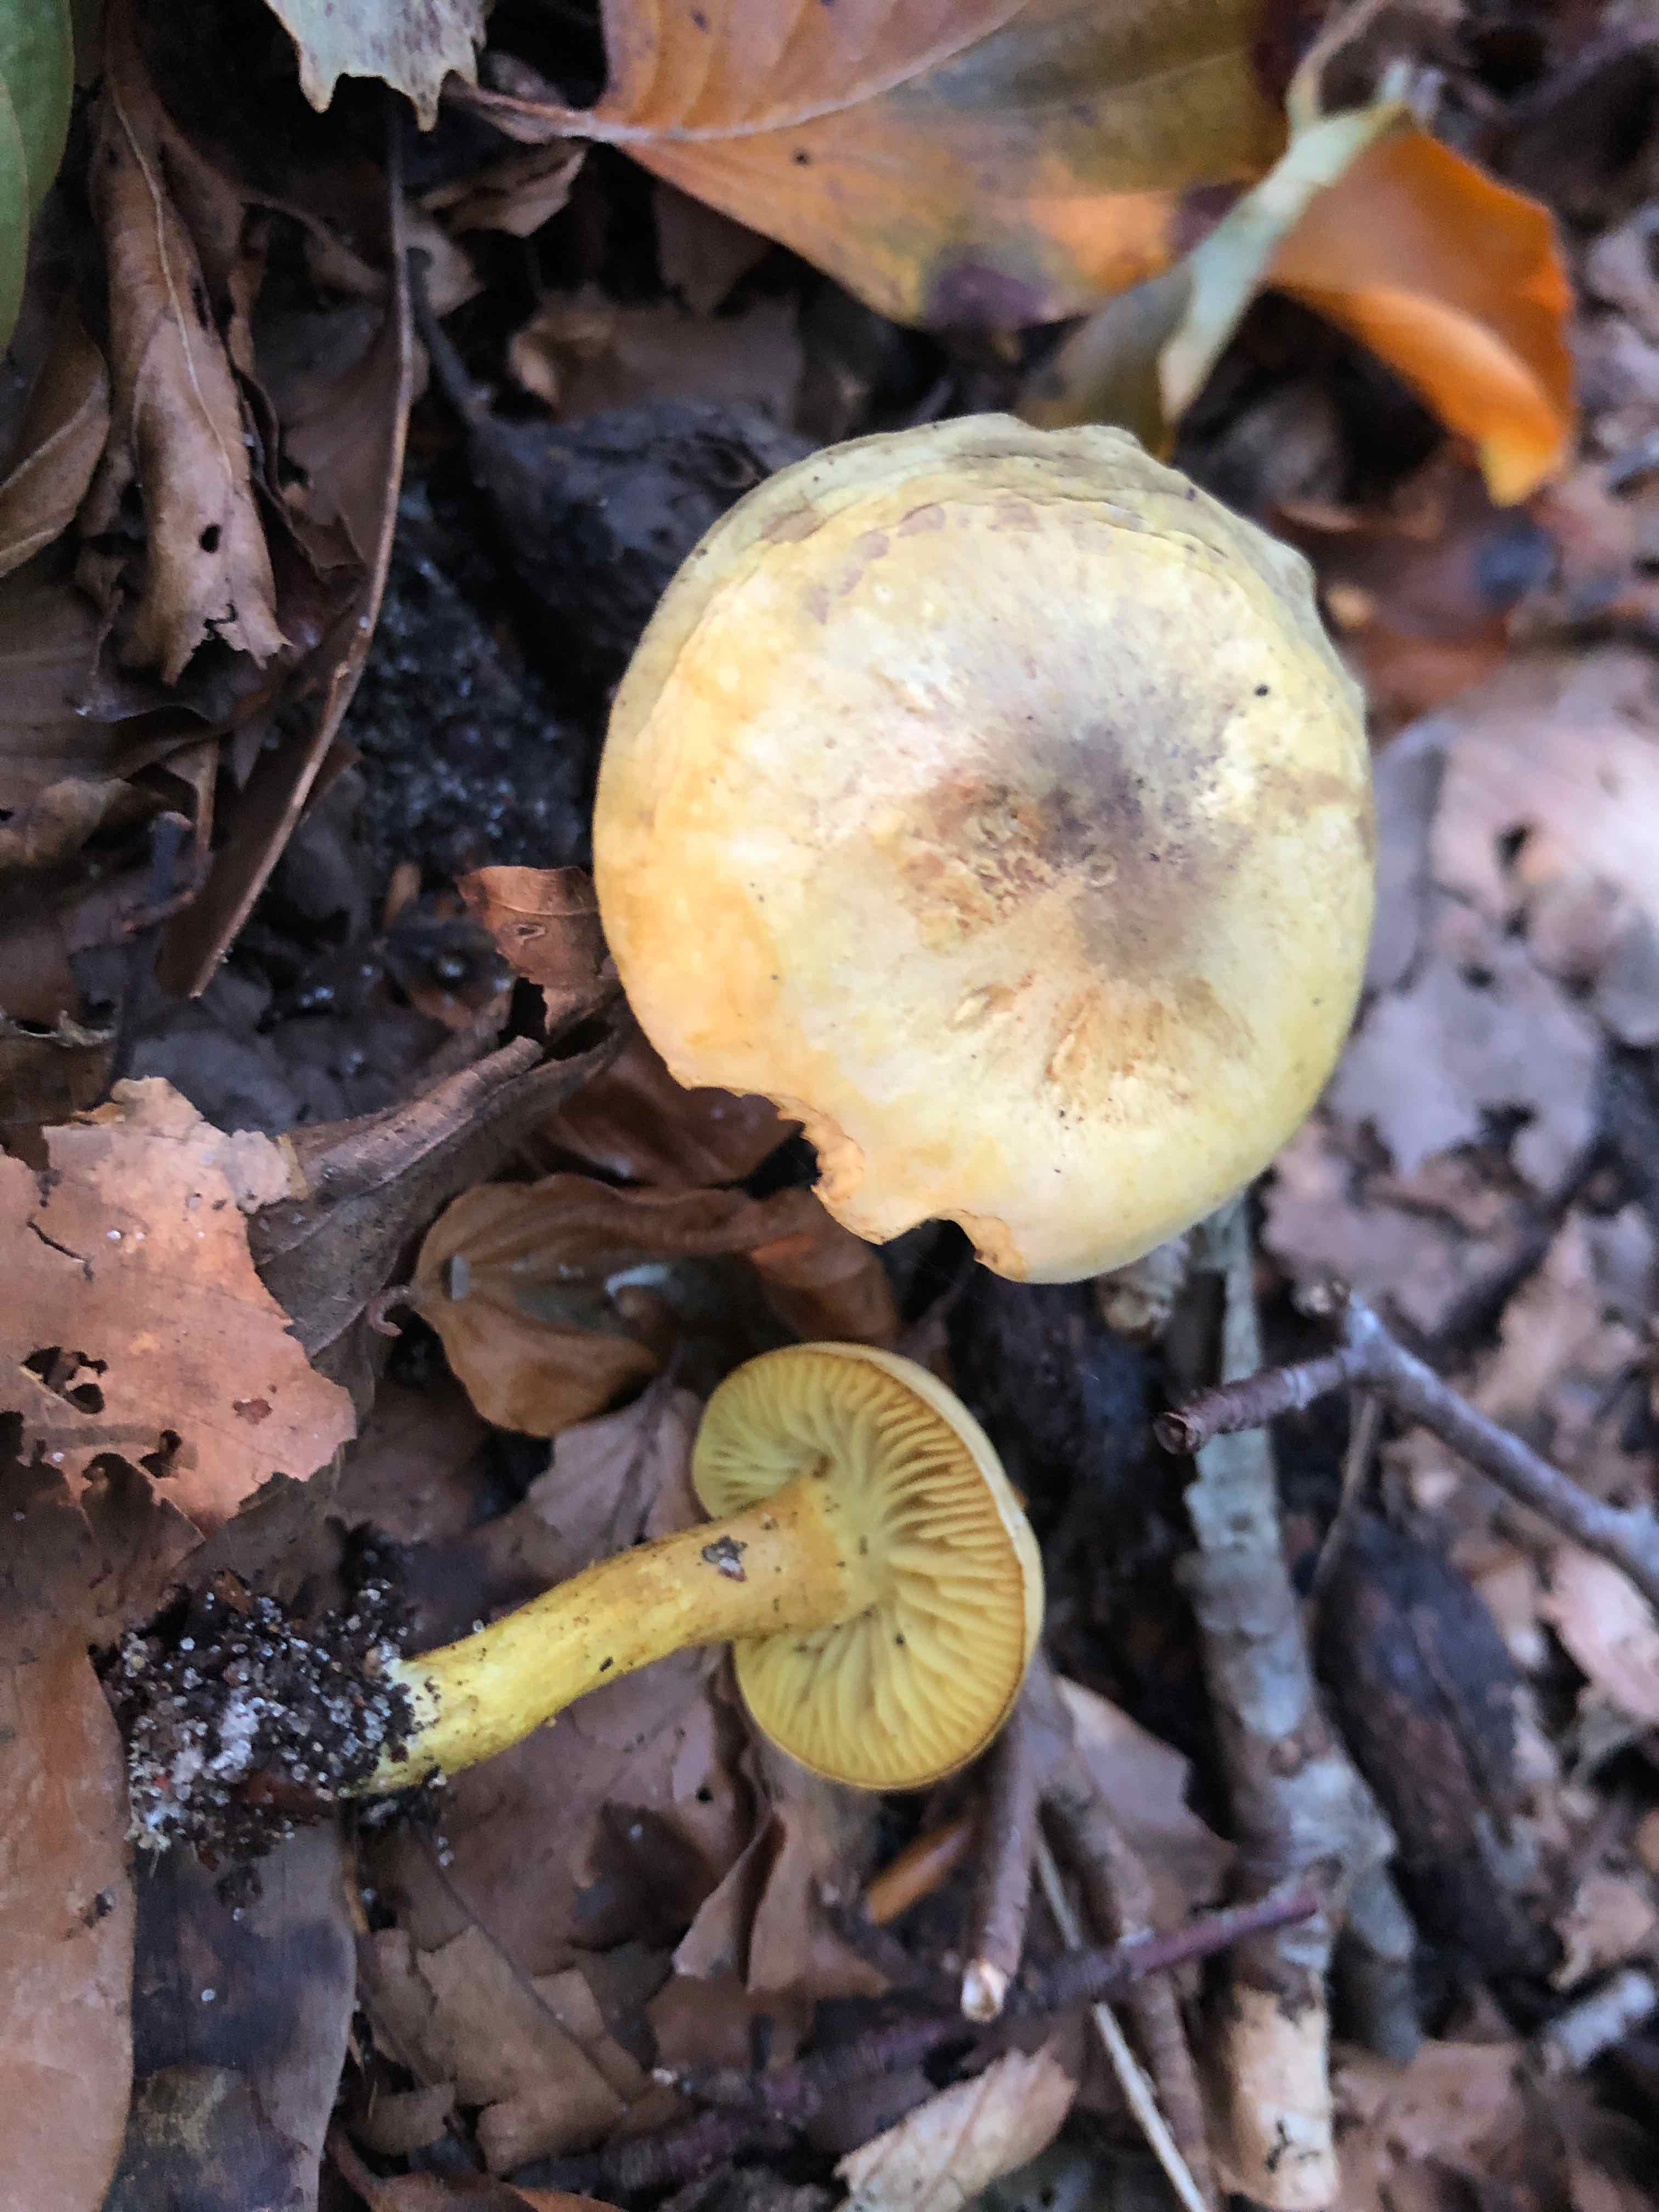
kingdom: Fungi
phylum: Basidiomycota
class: Agaricomycetes
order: Agaricales
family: Tricholomataceae
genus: Tricholoma
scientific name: Tricholoma sulphureum
